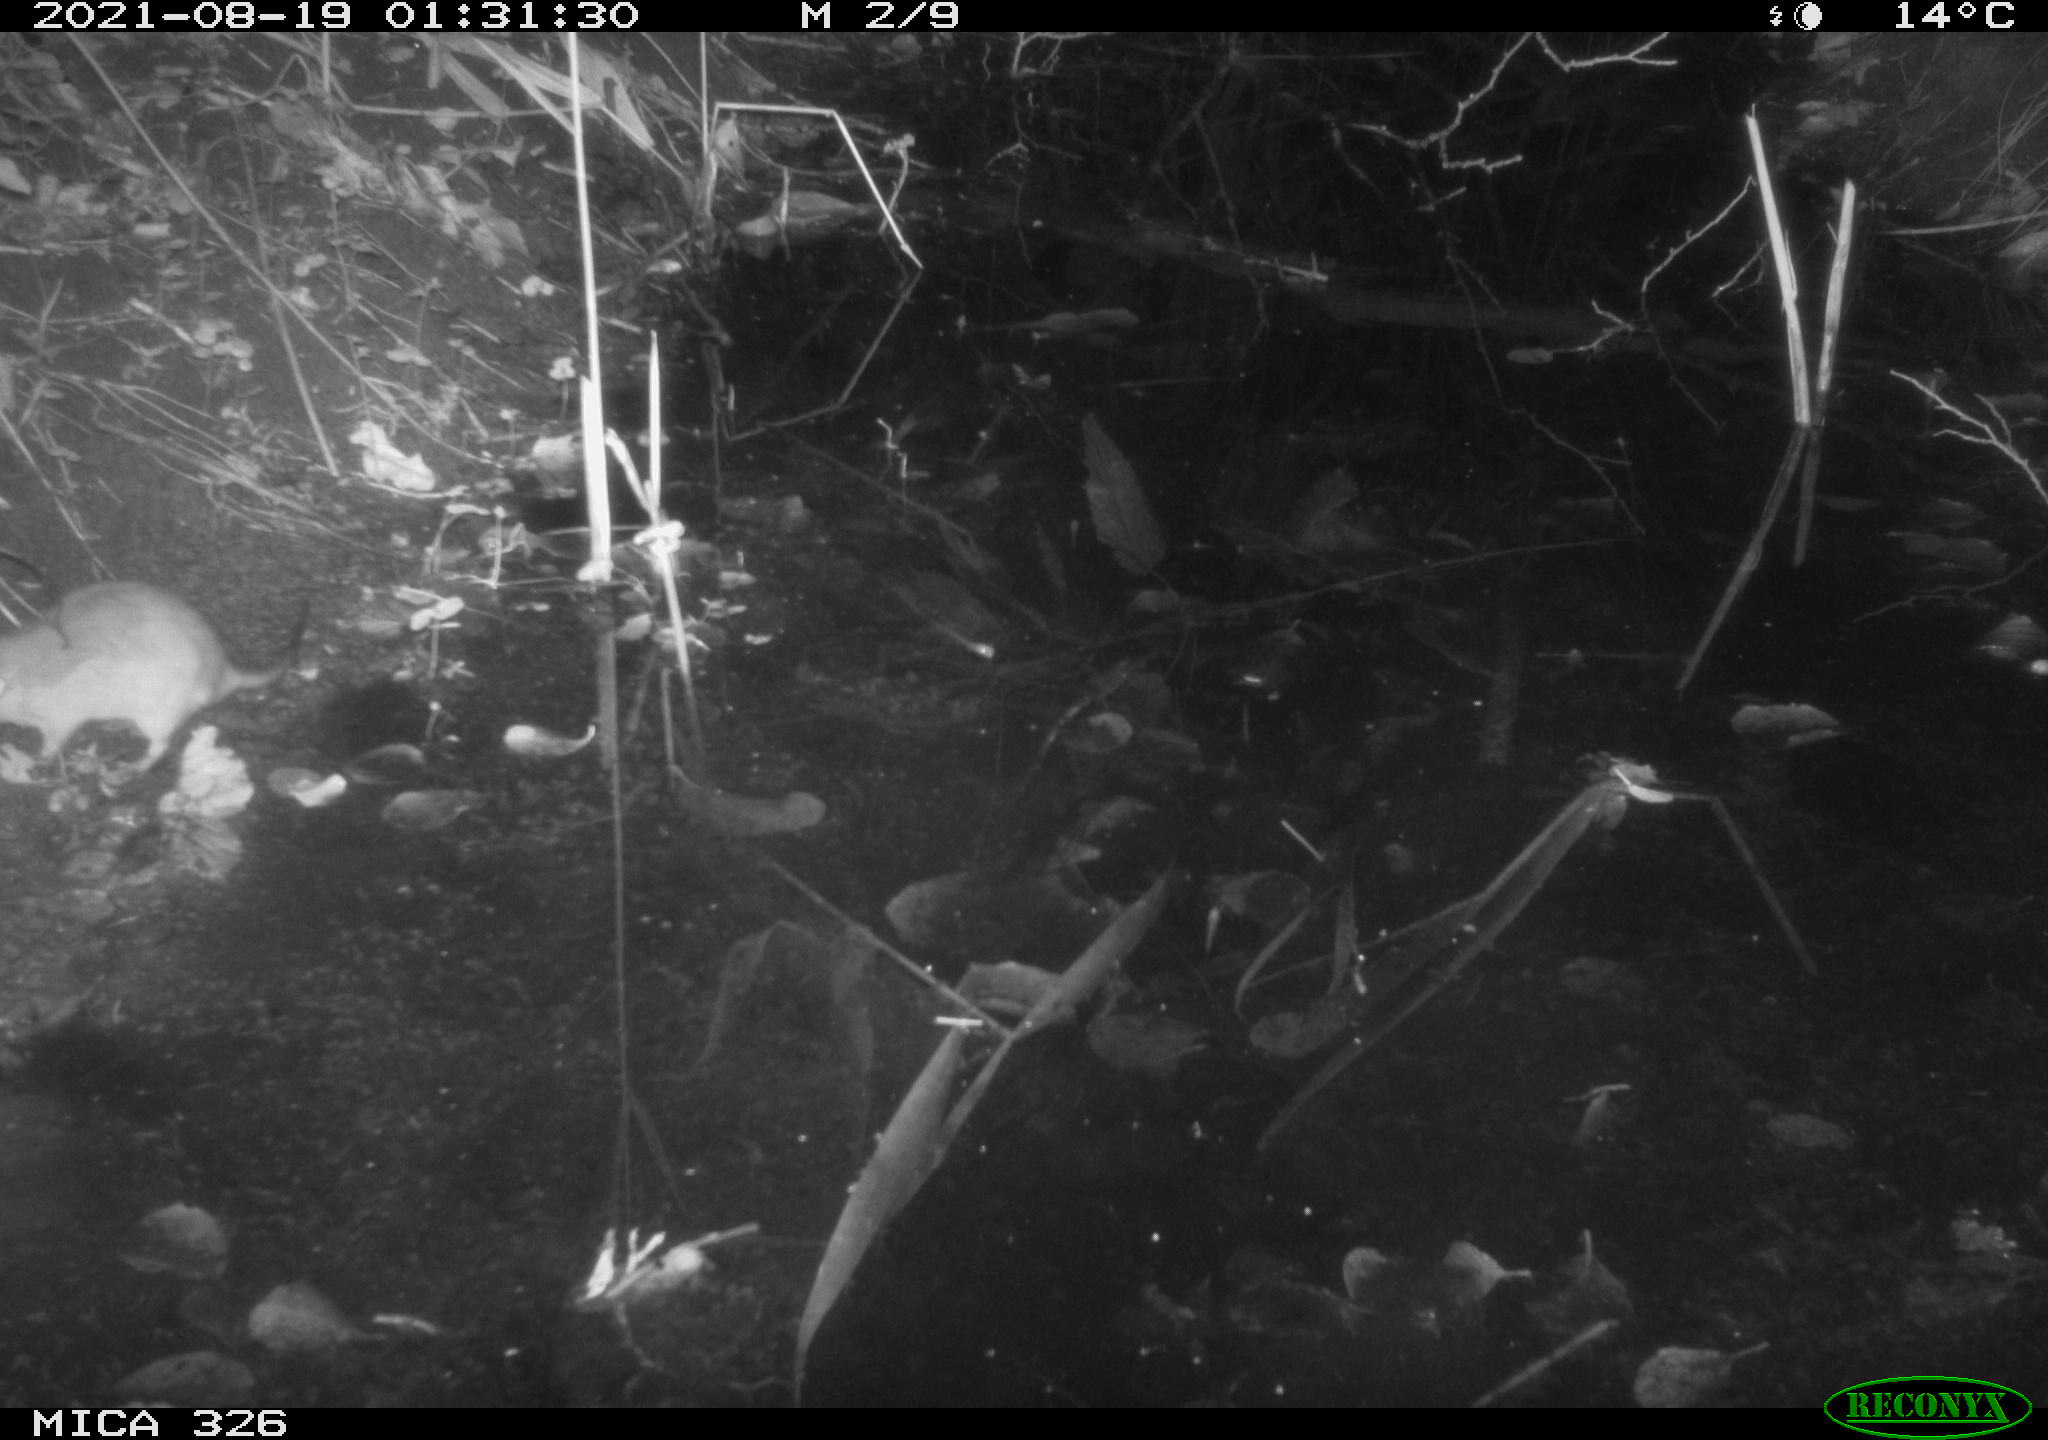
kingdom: Animalia
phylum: Chordata
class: Mammalia
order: Rodentia
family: Muridae
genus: Rattus
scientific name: Rattus norvegicus
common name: Brown rat
